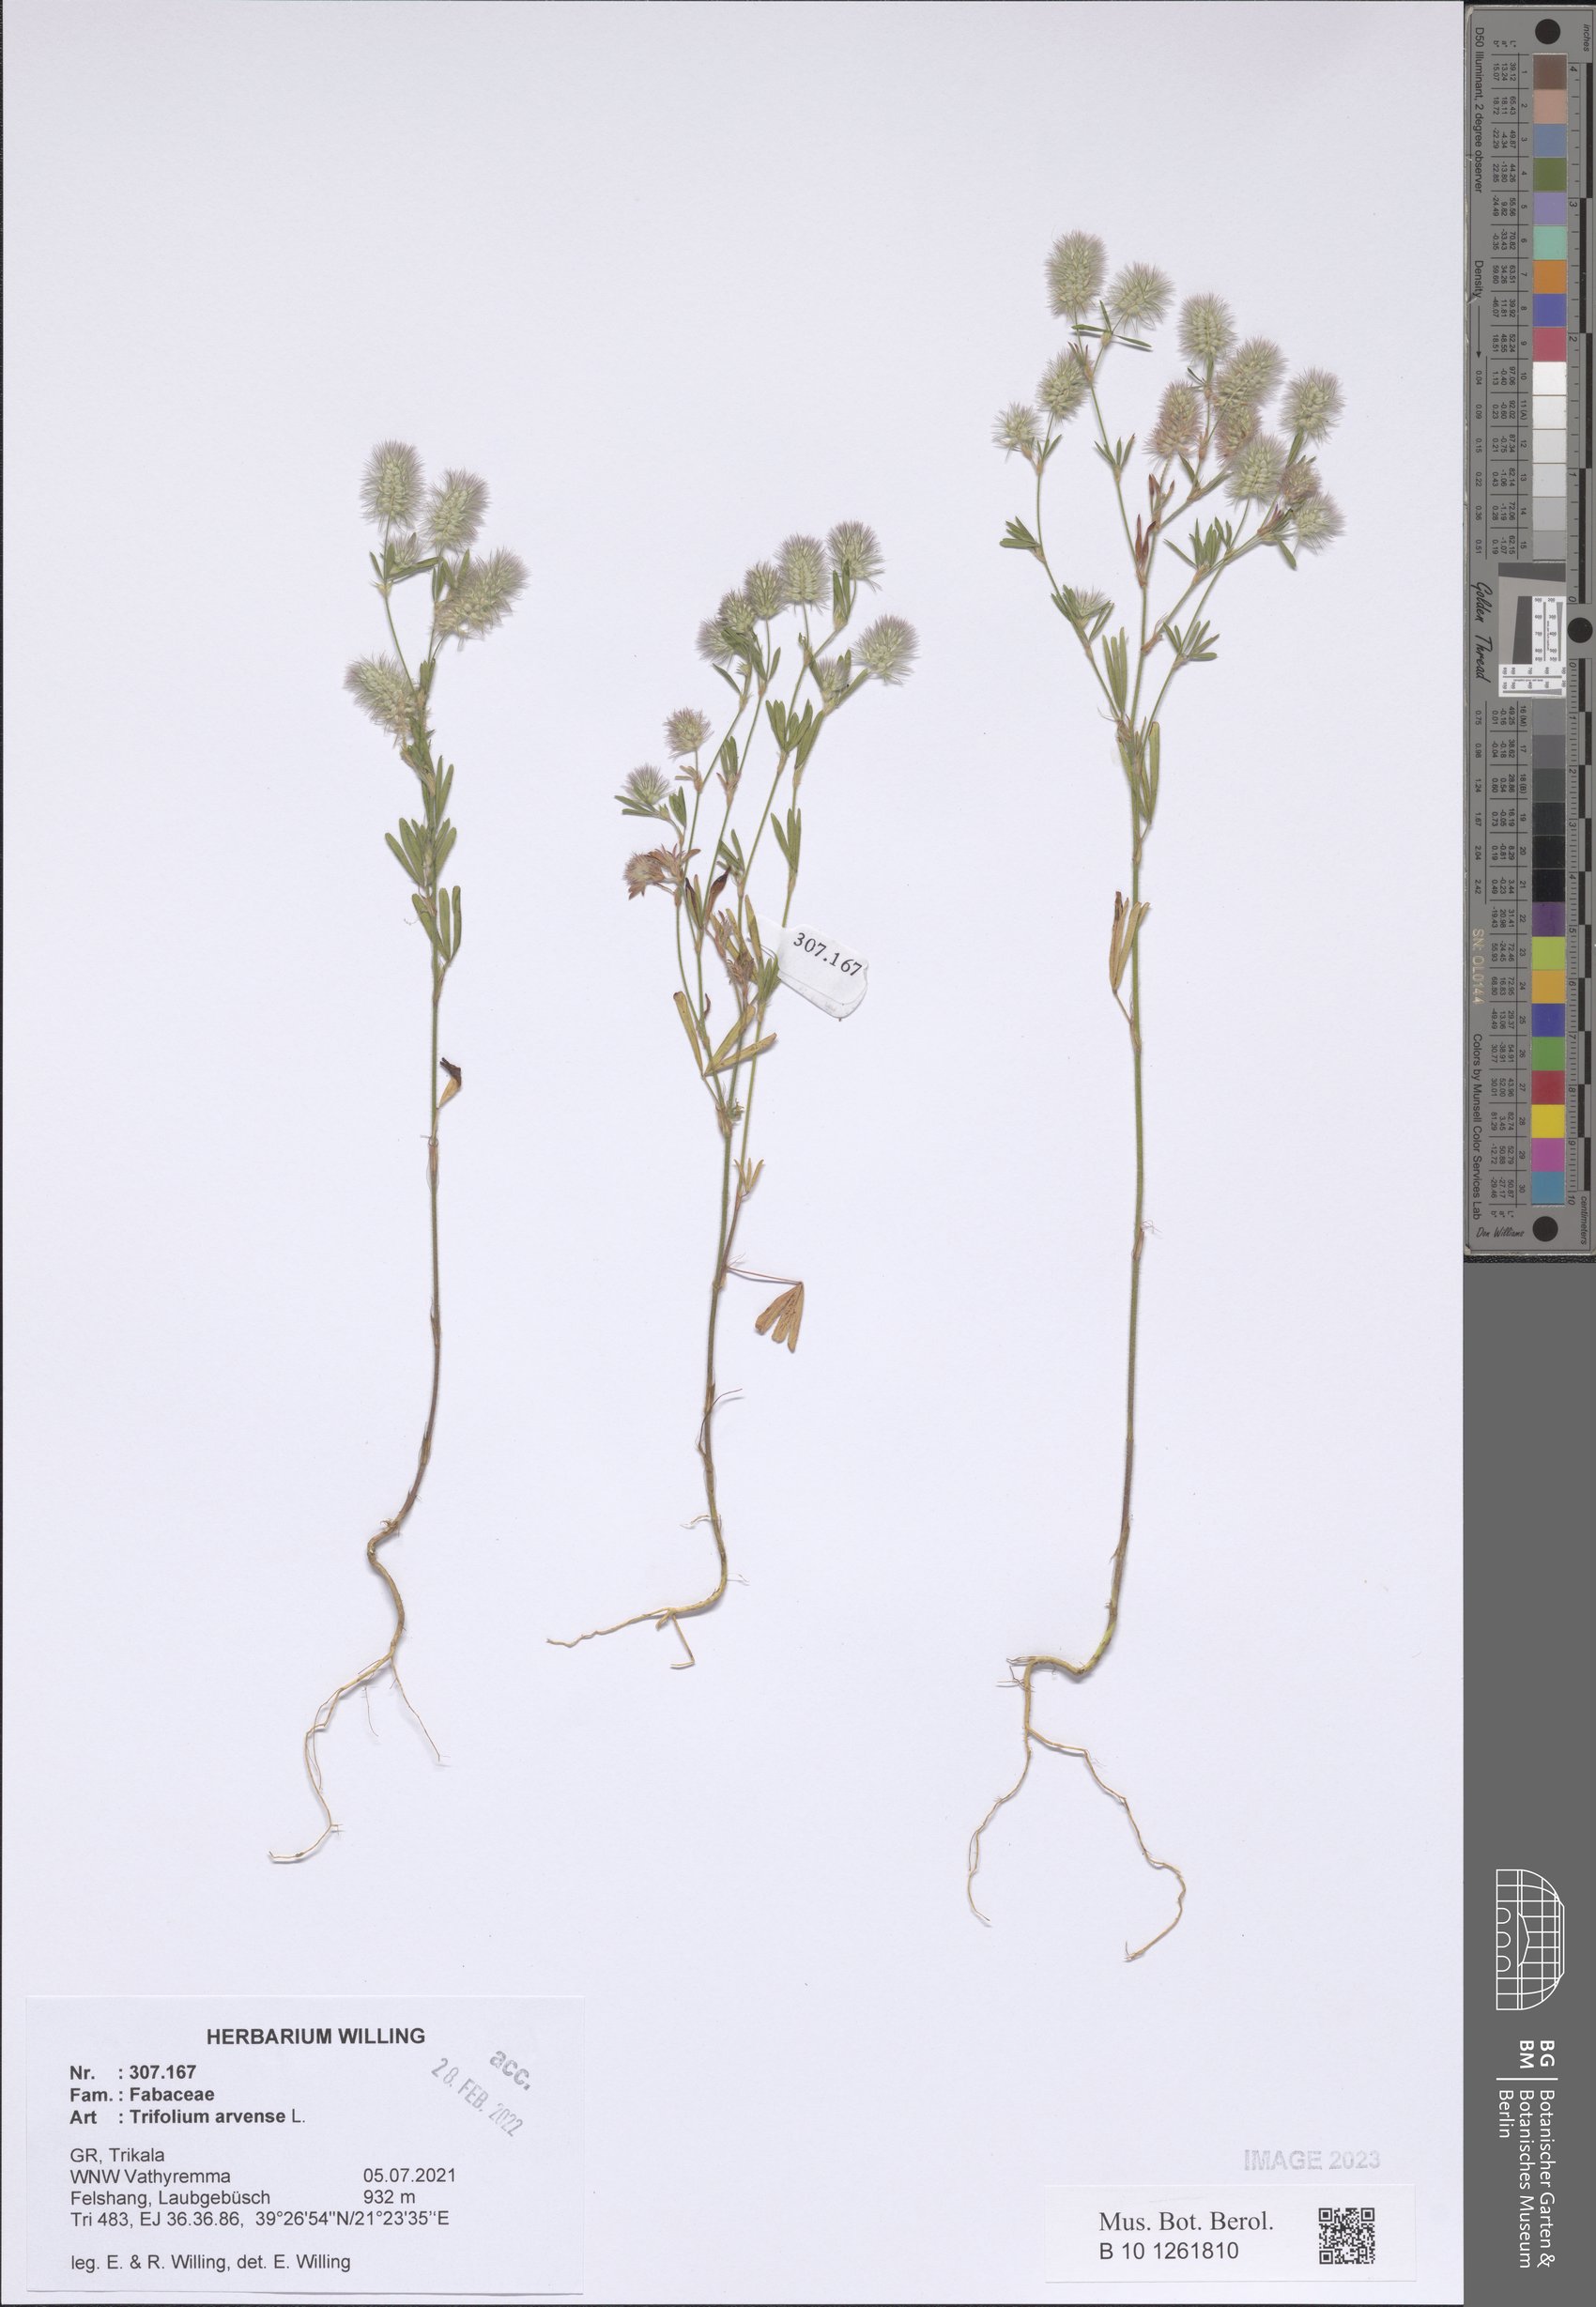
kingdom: Plantae
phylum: Tracheophyta
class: Magnoliopsida
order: Fabales
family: Fabaceae
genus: Trifolium
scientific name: Trifolium arvense
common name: Hare's-foot clover
